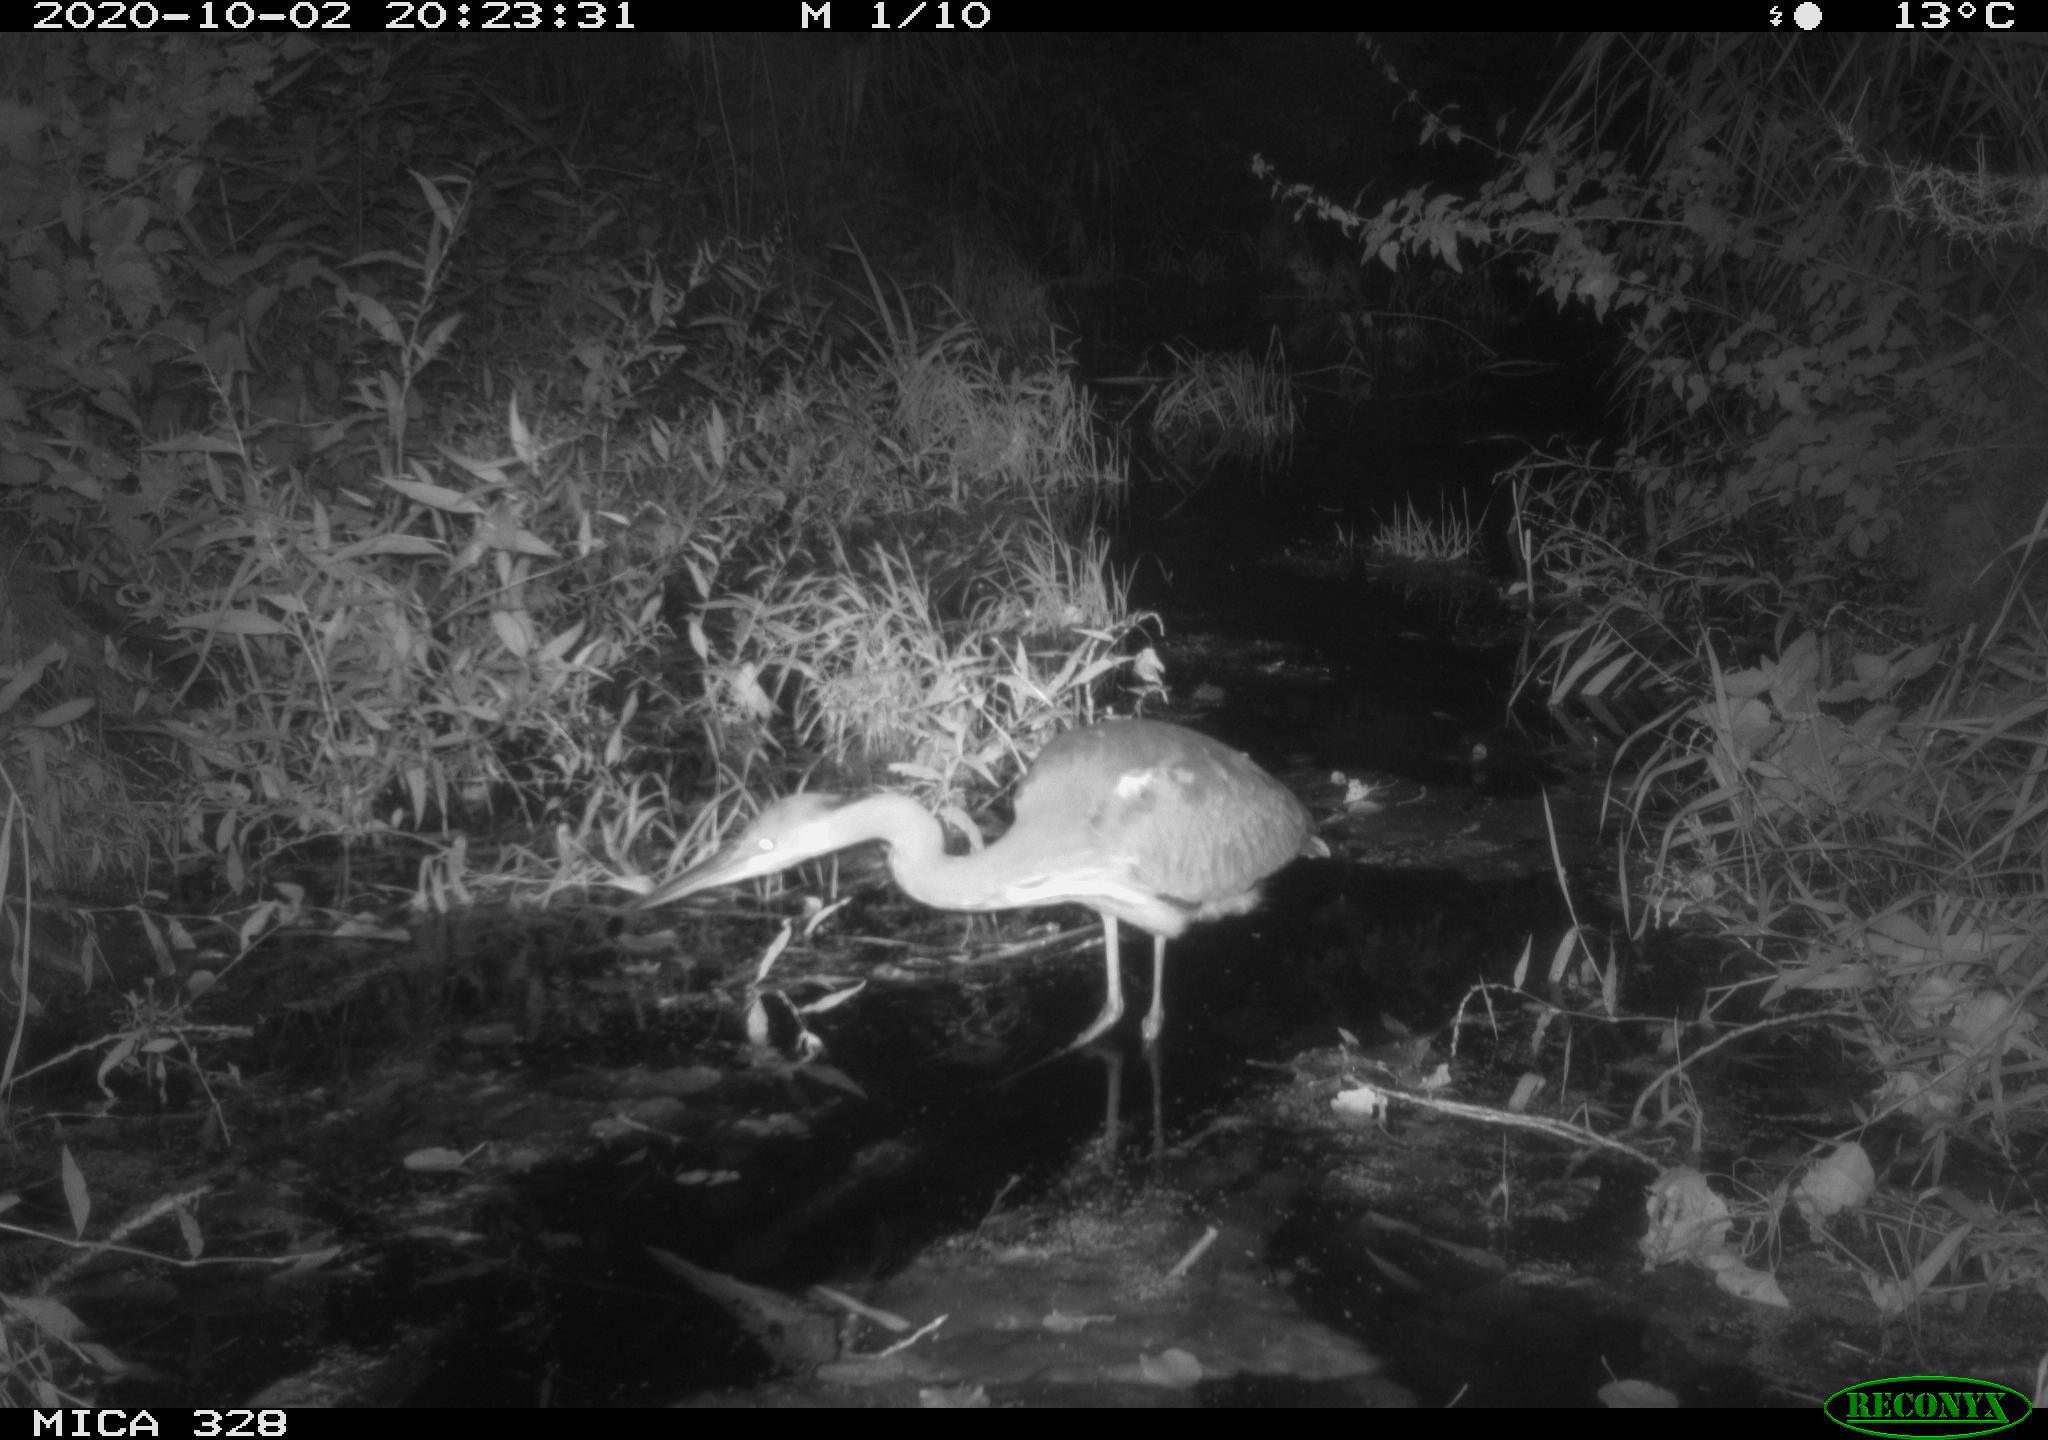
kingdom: Animalia
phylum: Chordata
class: Aves
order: Pelecaniformes
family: Ardeidae
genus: Ardea
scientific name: Ardea cinerea
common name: Grey heron
